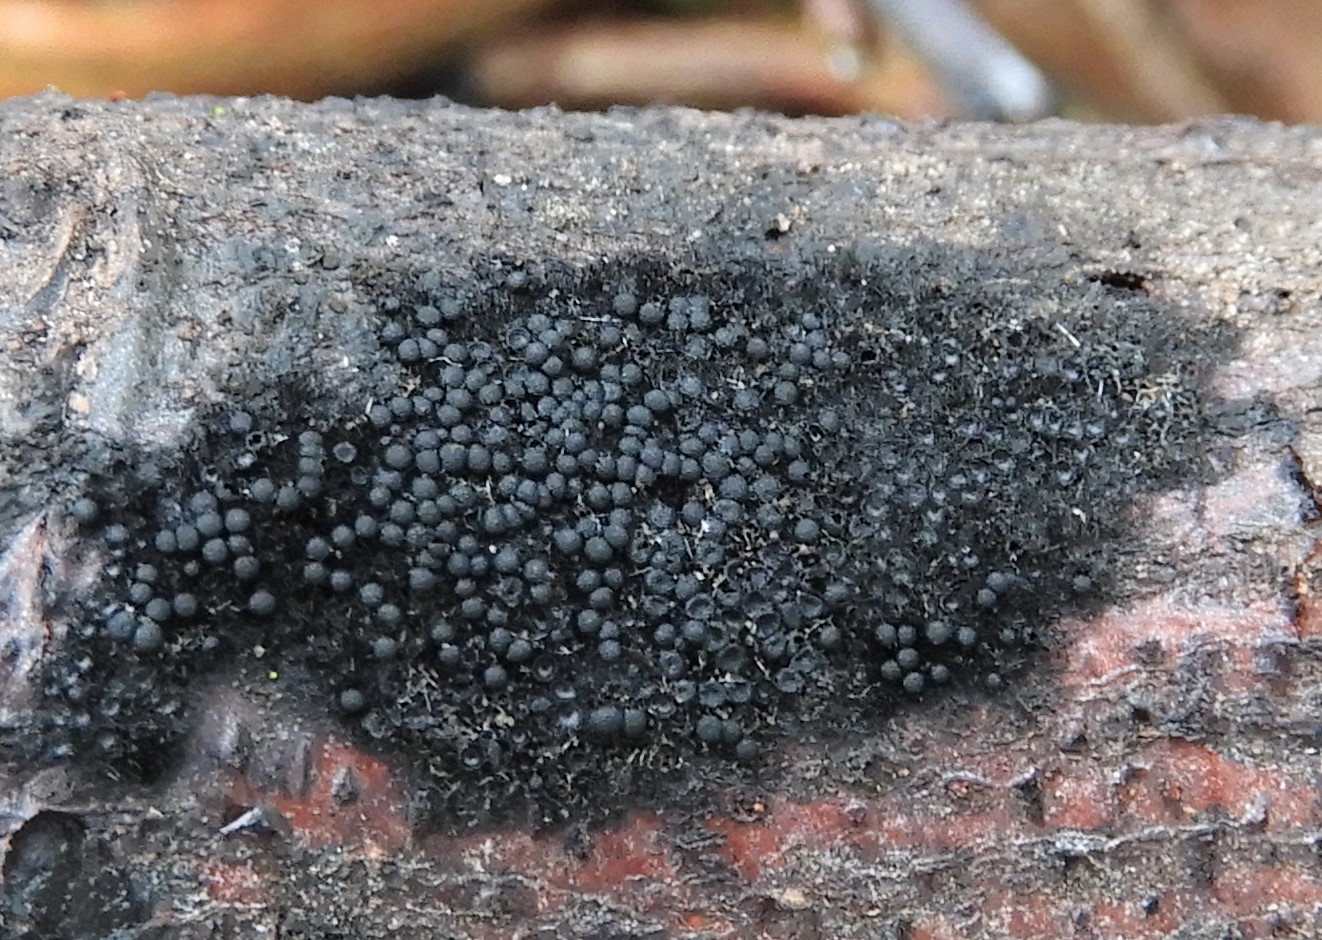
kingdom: Fungi
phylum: Ascomycota
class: Sordariomycetes
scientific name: Sordariomycetes
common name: kernesvampklassen
